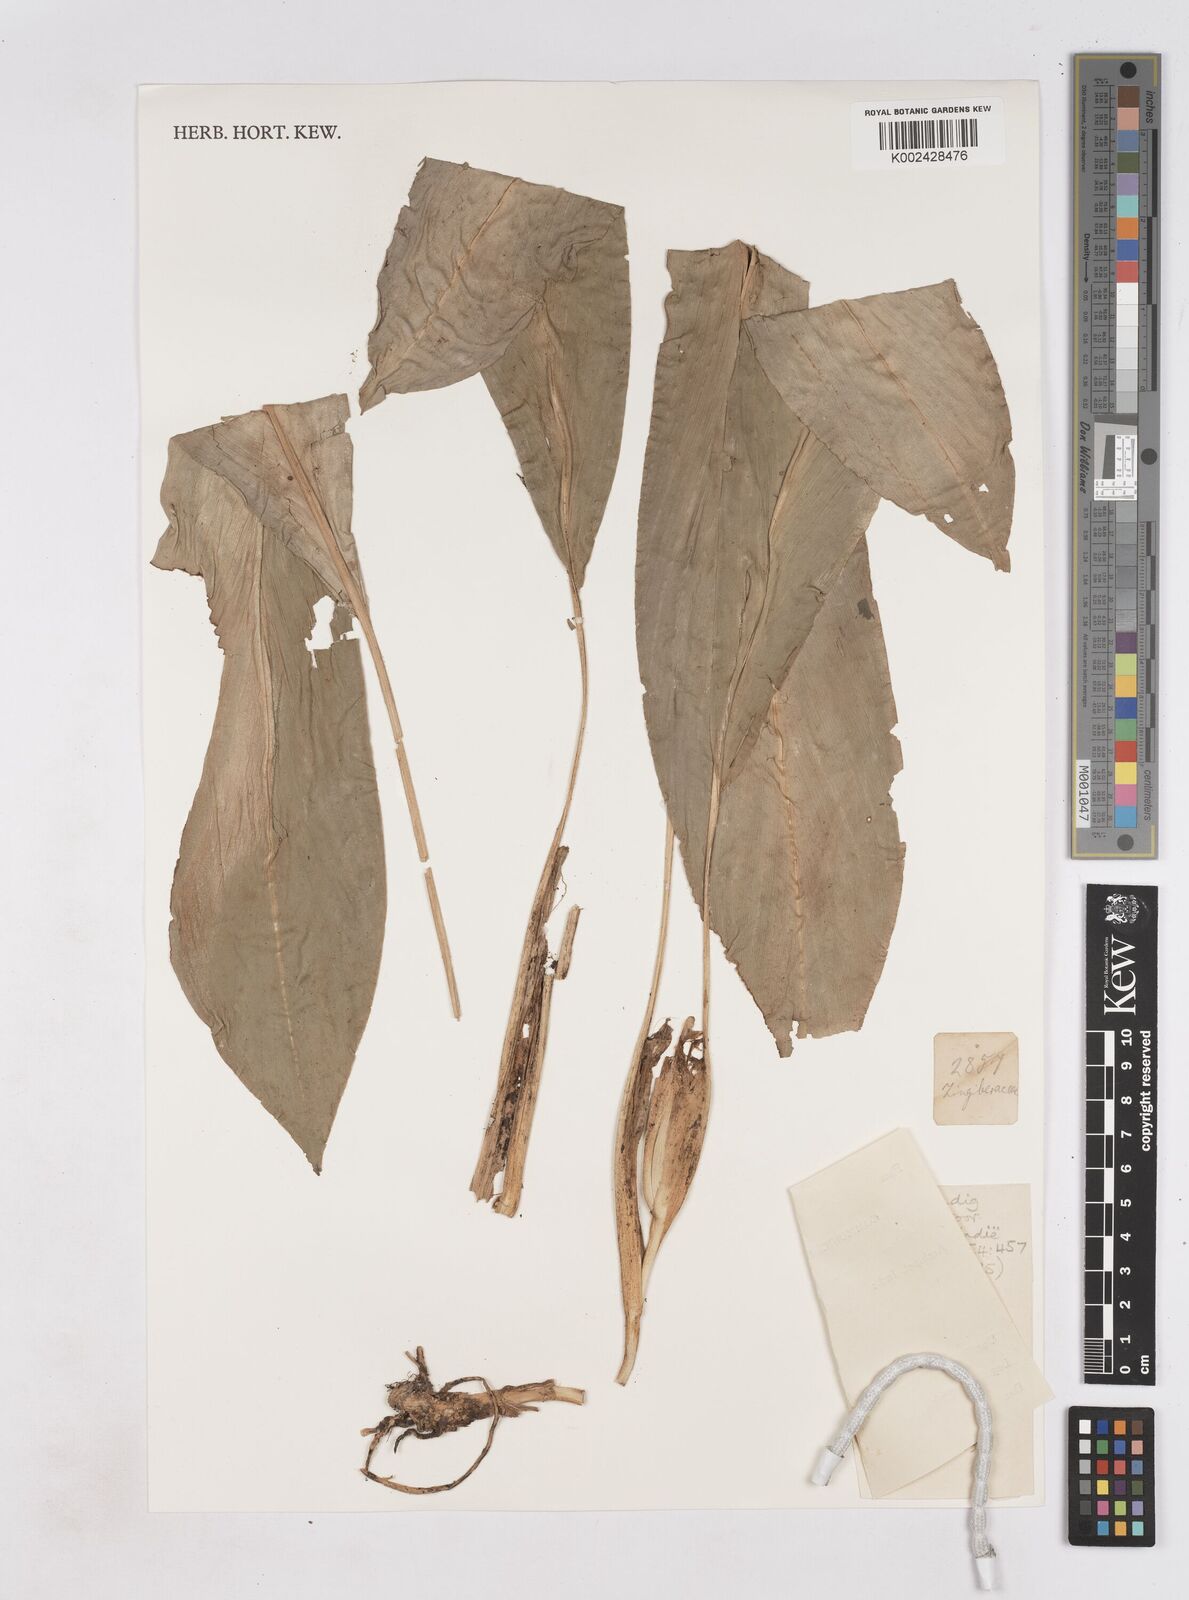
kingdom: Plantae
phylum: Tracheophyta
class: Liliopsida
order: Zingiberales
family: Zingiberaceae
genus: Boesenbergia
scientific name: Boesenbergia
